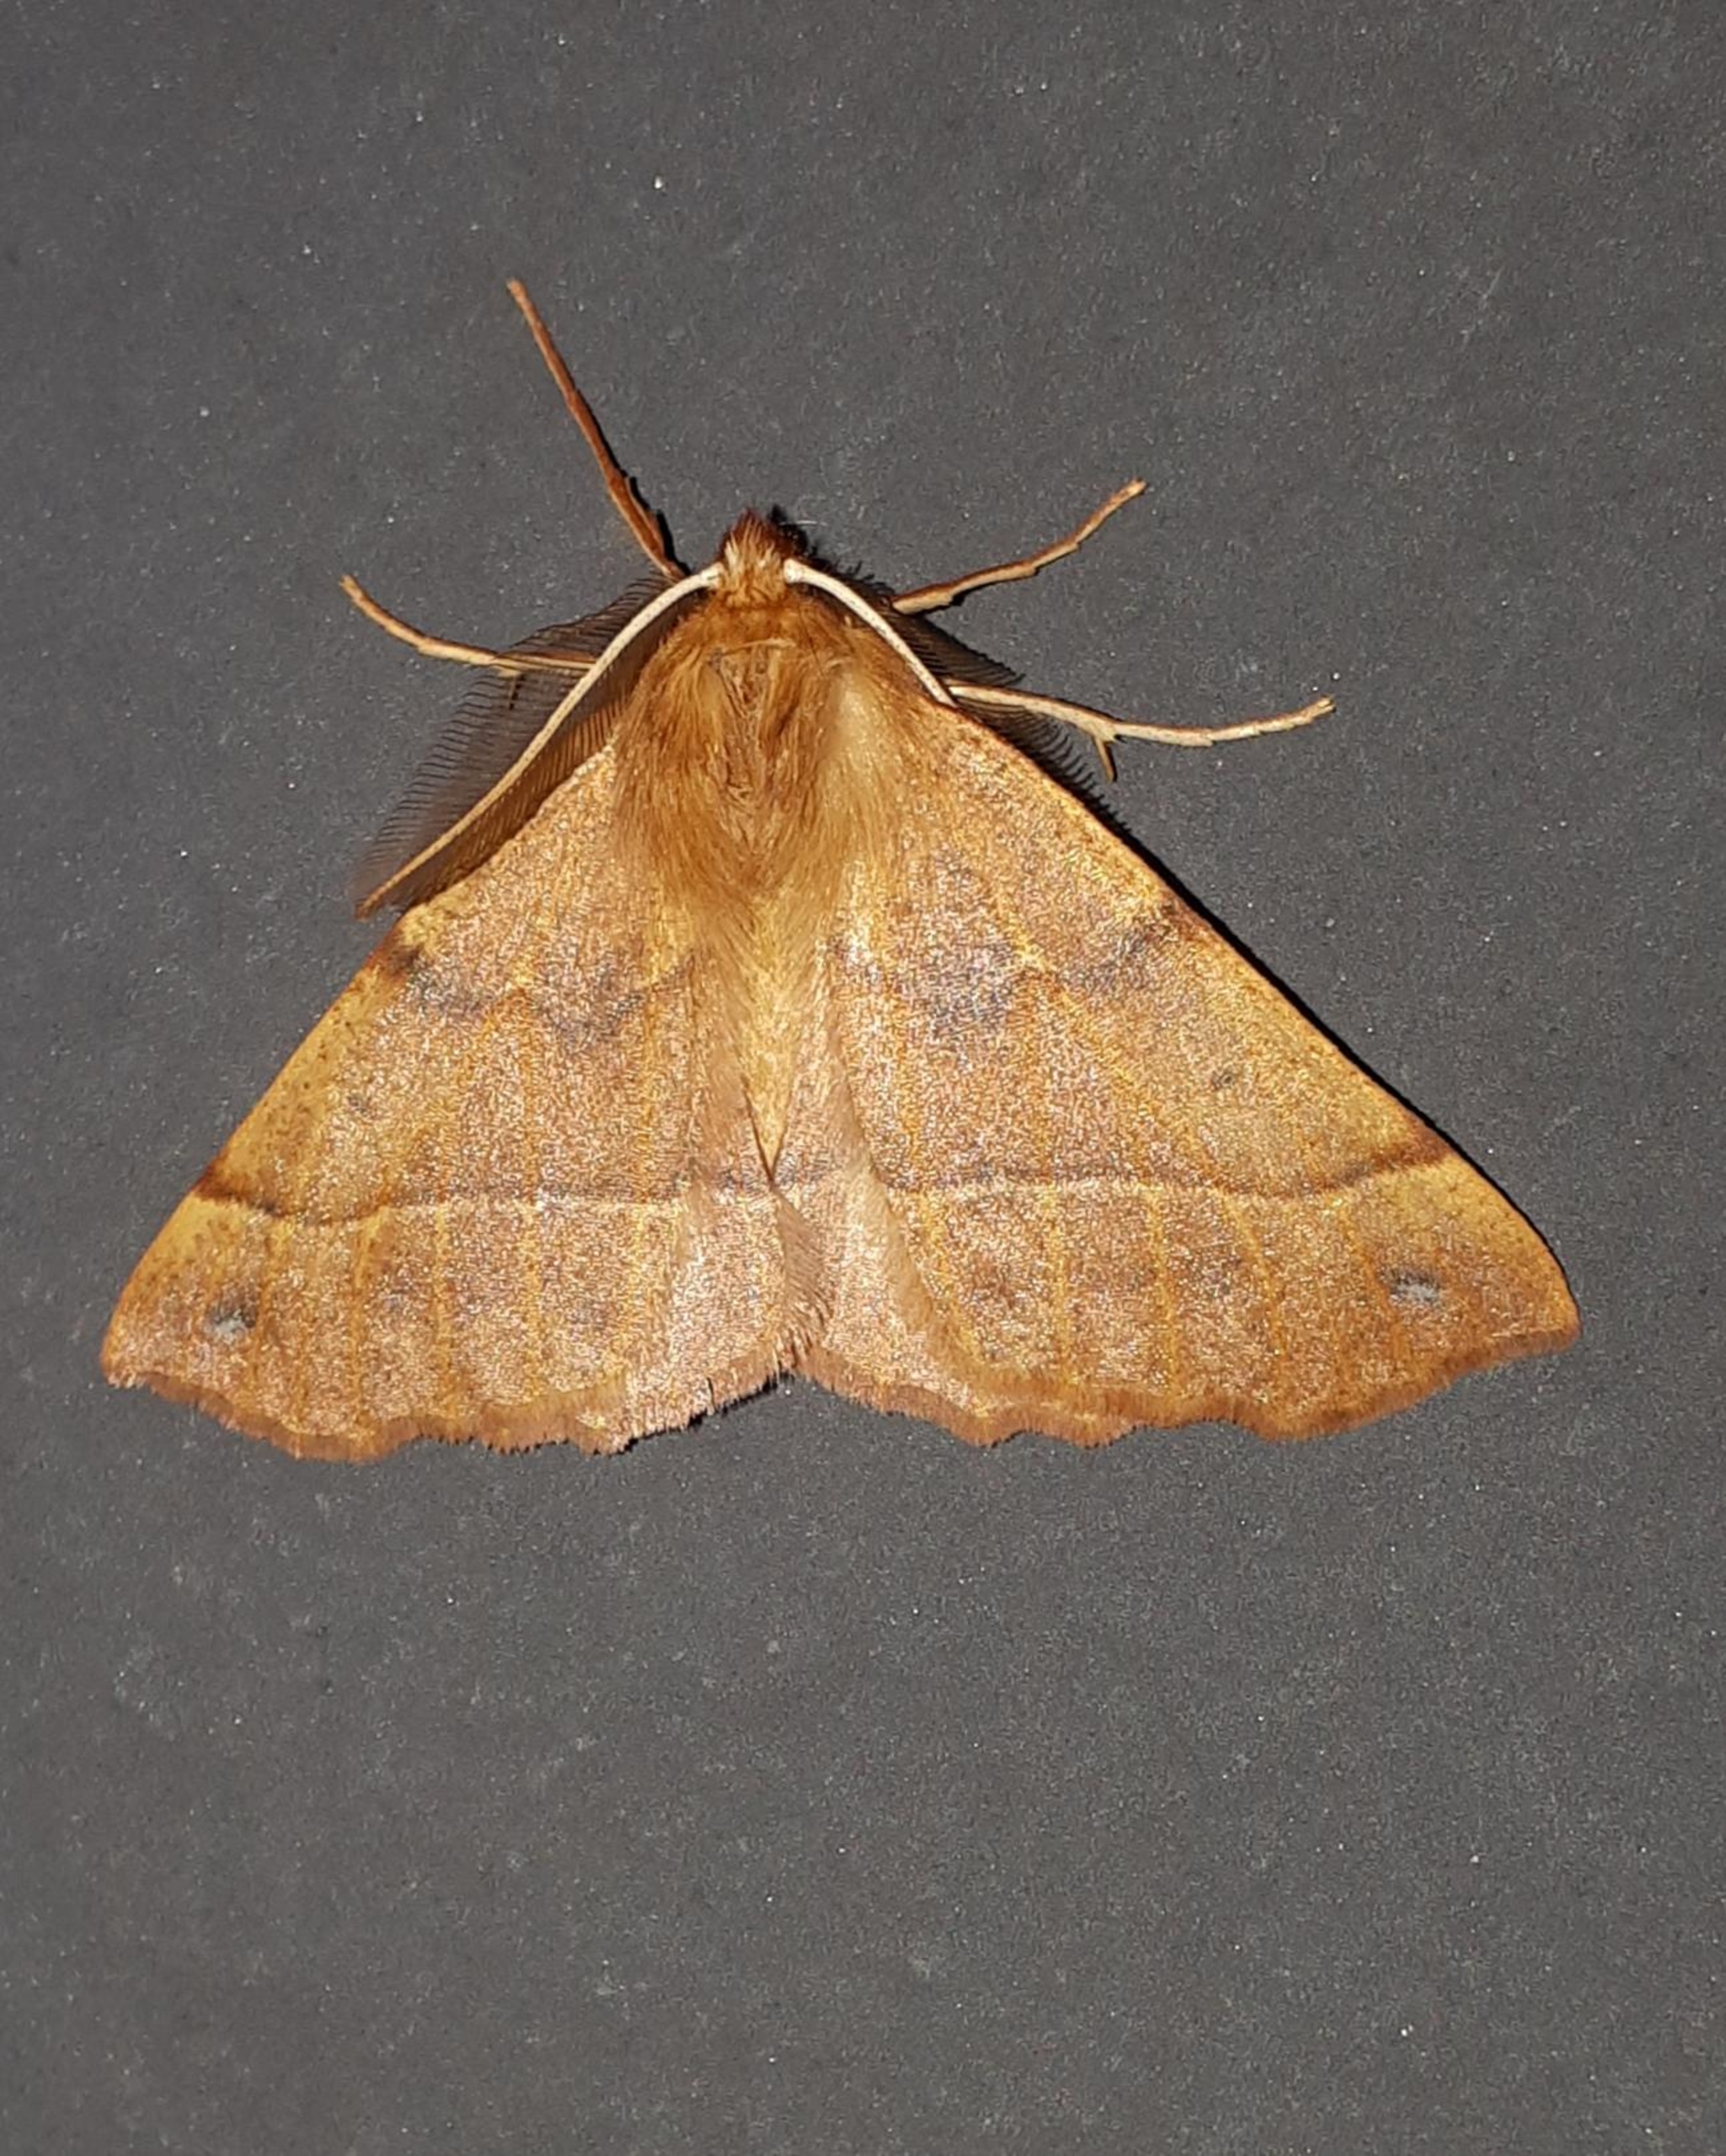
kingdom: Animalia
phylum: Arthropoda
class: Insecta
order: Lepidoptera
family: Geometridae
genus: Colotois
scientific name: Colotois pennaria
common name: Løvfaldsmåler
